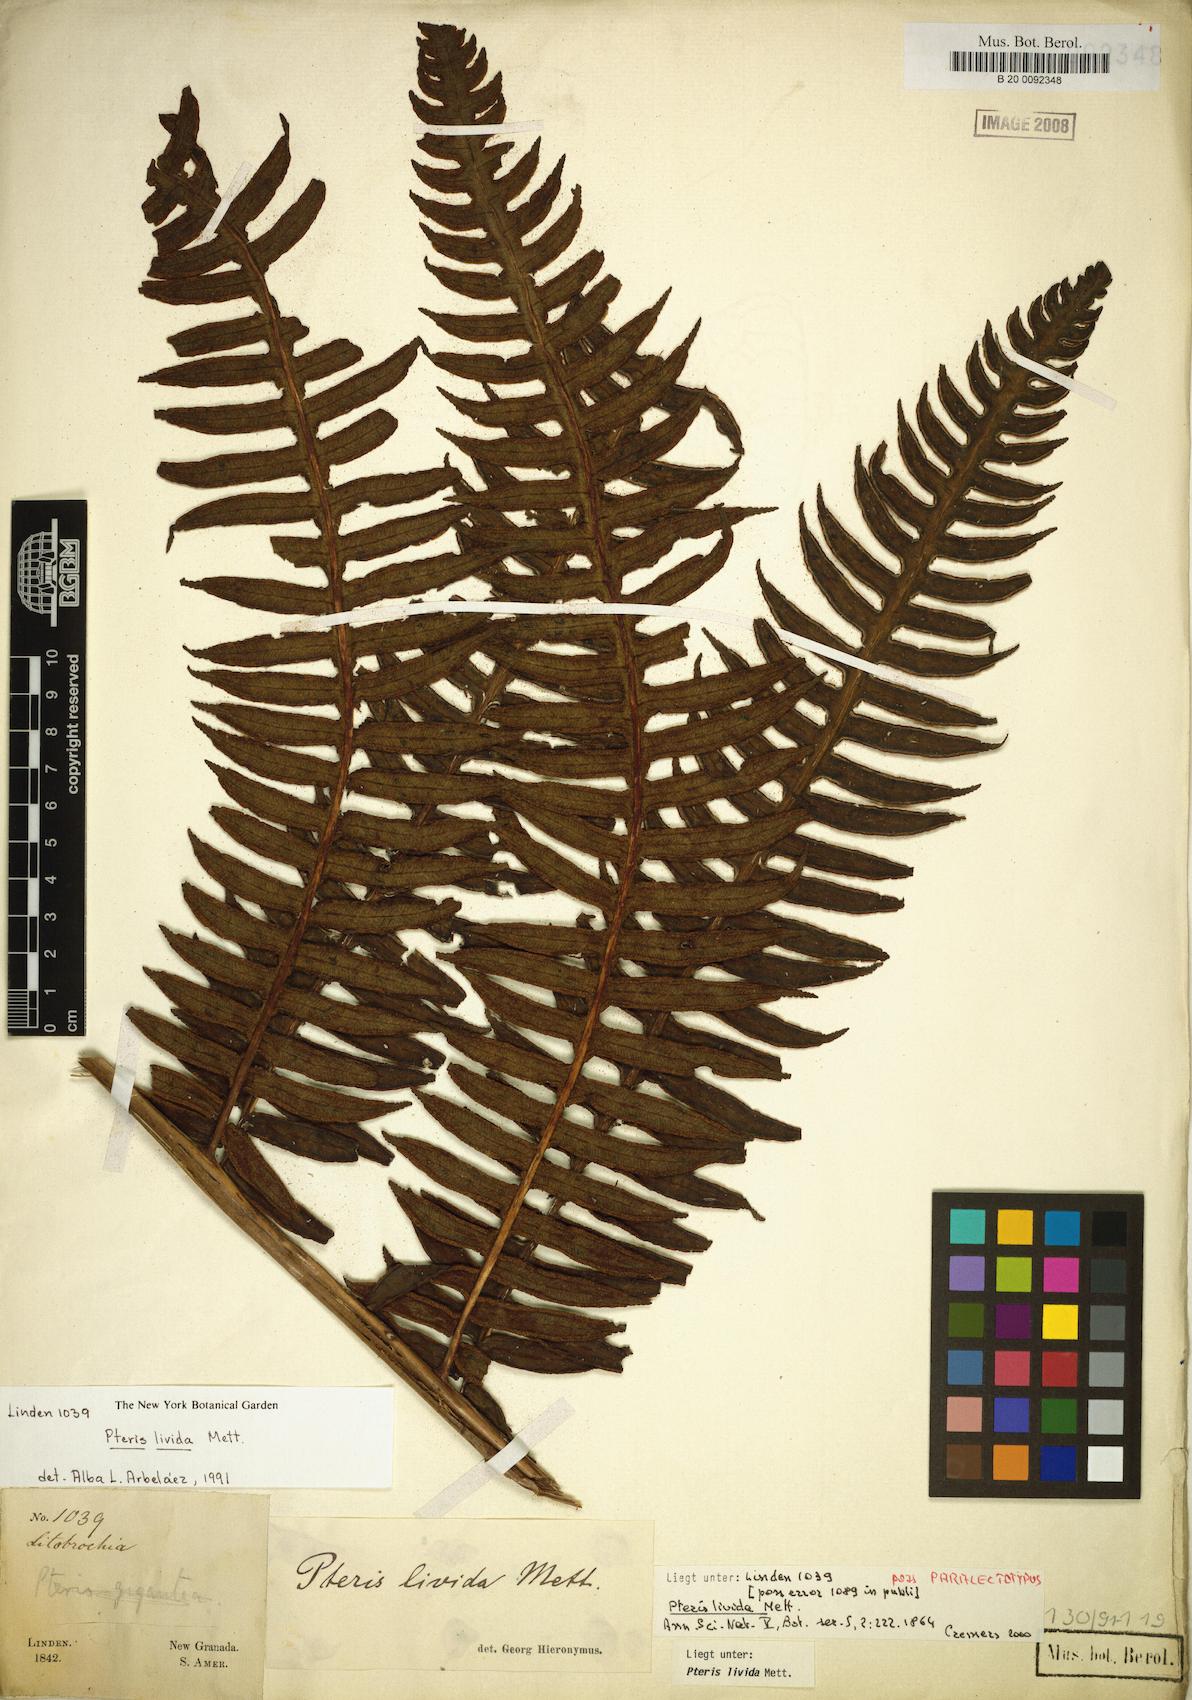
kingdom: Plantae
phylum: Tracheophyta
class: Polypodiopsida
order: Polypodiales
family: Pteridaceae
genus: Pteris
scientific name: Pteris livida
